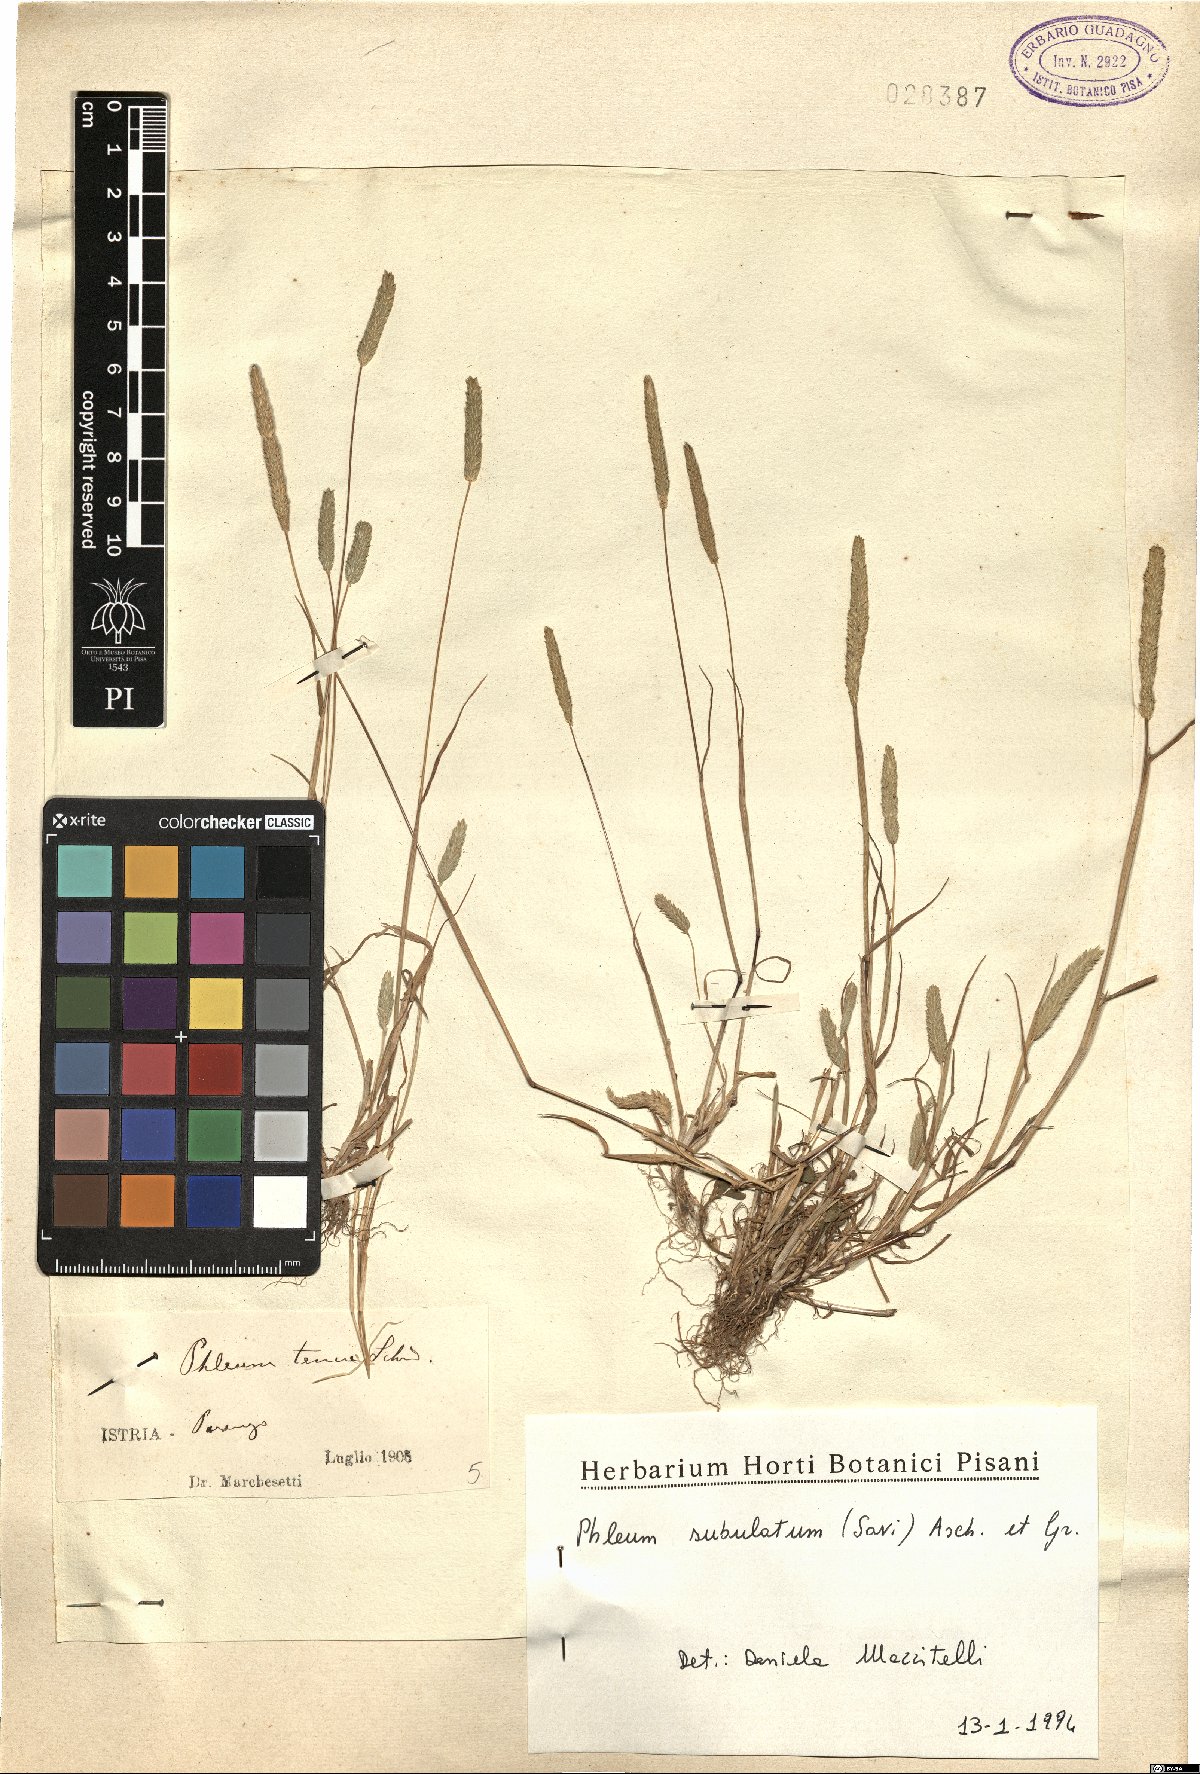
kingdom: Plantae
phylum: Tracheophyta
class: Liliopsida
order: Poales
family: Poaceae
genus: Phleum
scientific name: Phleum subulatum
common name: Italian timothy
